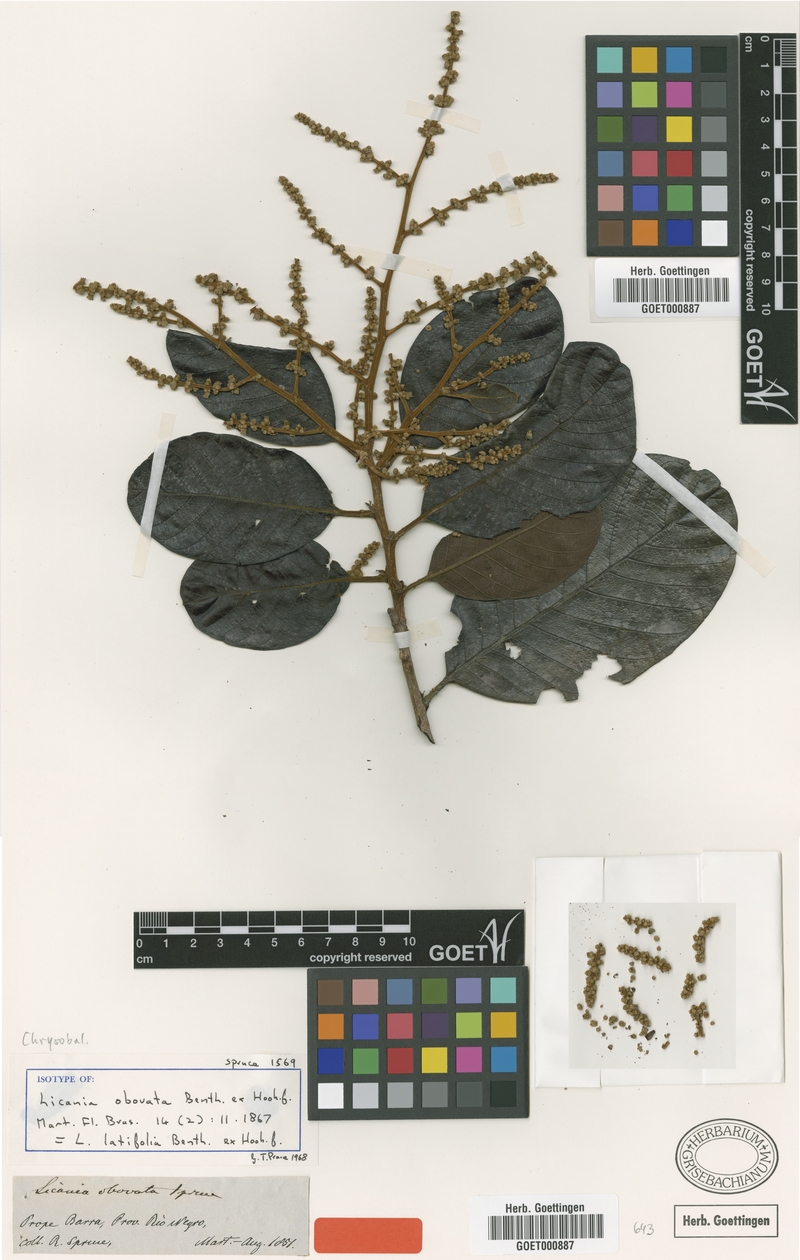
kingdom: Plantae
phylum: Tracheophyta
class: Magnoliopsida
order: Malpighiales
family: Chrysobalanaceae
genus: Hymenopus
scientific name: Hymenopus latifolius
